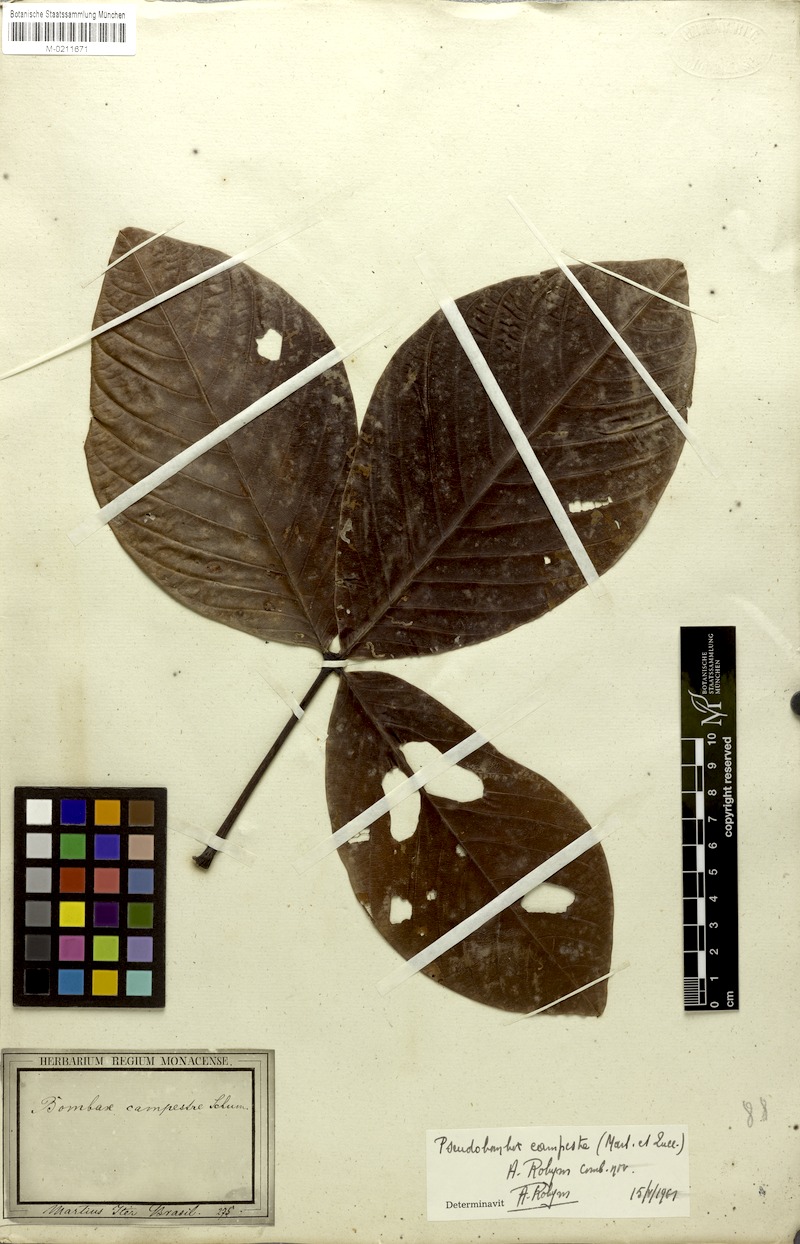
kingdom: Plantae
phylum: Tracheophyta
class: Magnoliopsida
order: Malvales
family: Malvaceae
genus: Pseudobombax
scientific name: Pseudobombax campestre
